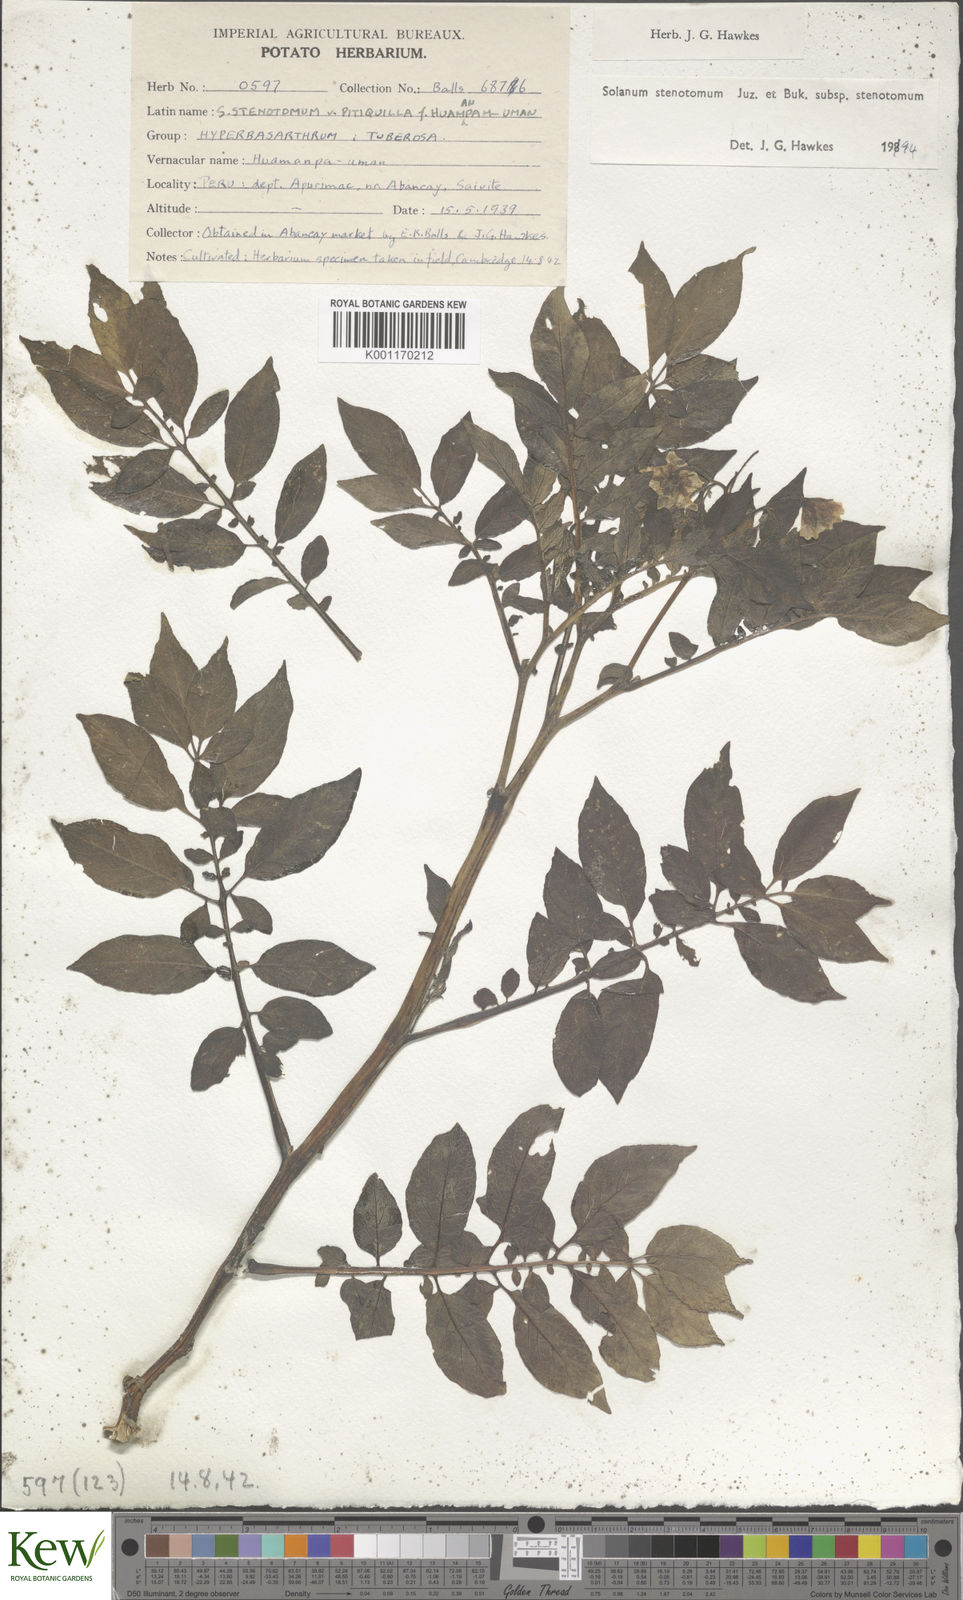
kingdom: Plantae
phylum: Tracheophyta
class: Magnoliopsida
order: Solanales
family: Solanaceae
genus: Solanum
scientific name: Solanum tuberosum
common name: Potato
